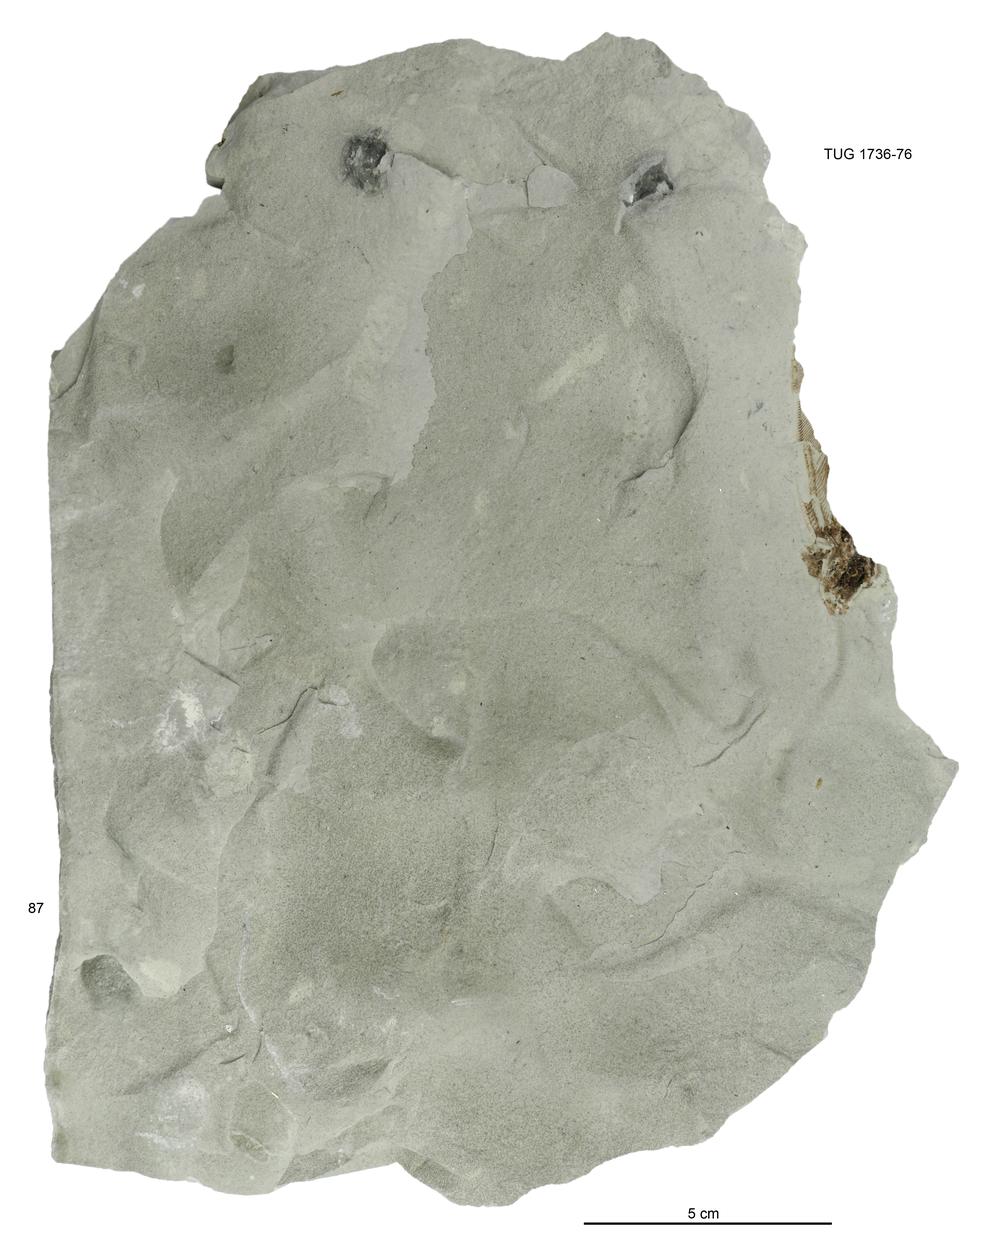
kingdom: Animalia
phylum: Echinodermata
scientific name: Echinodermata
